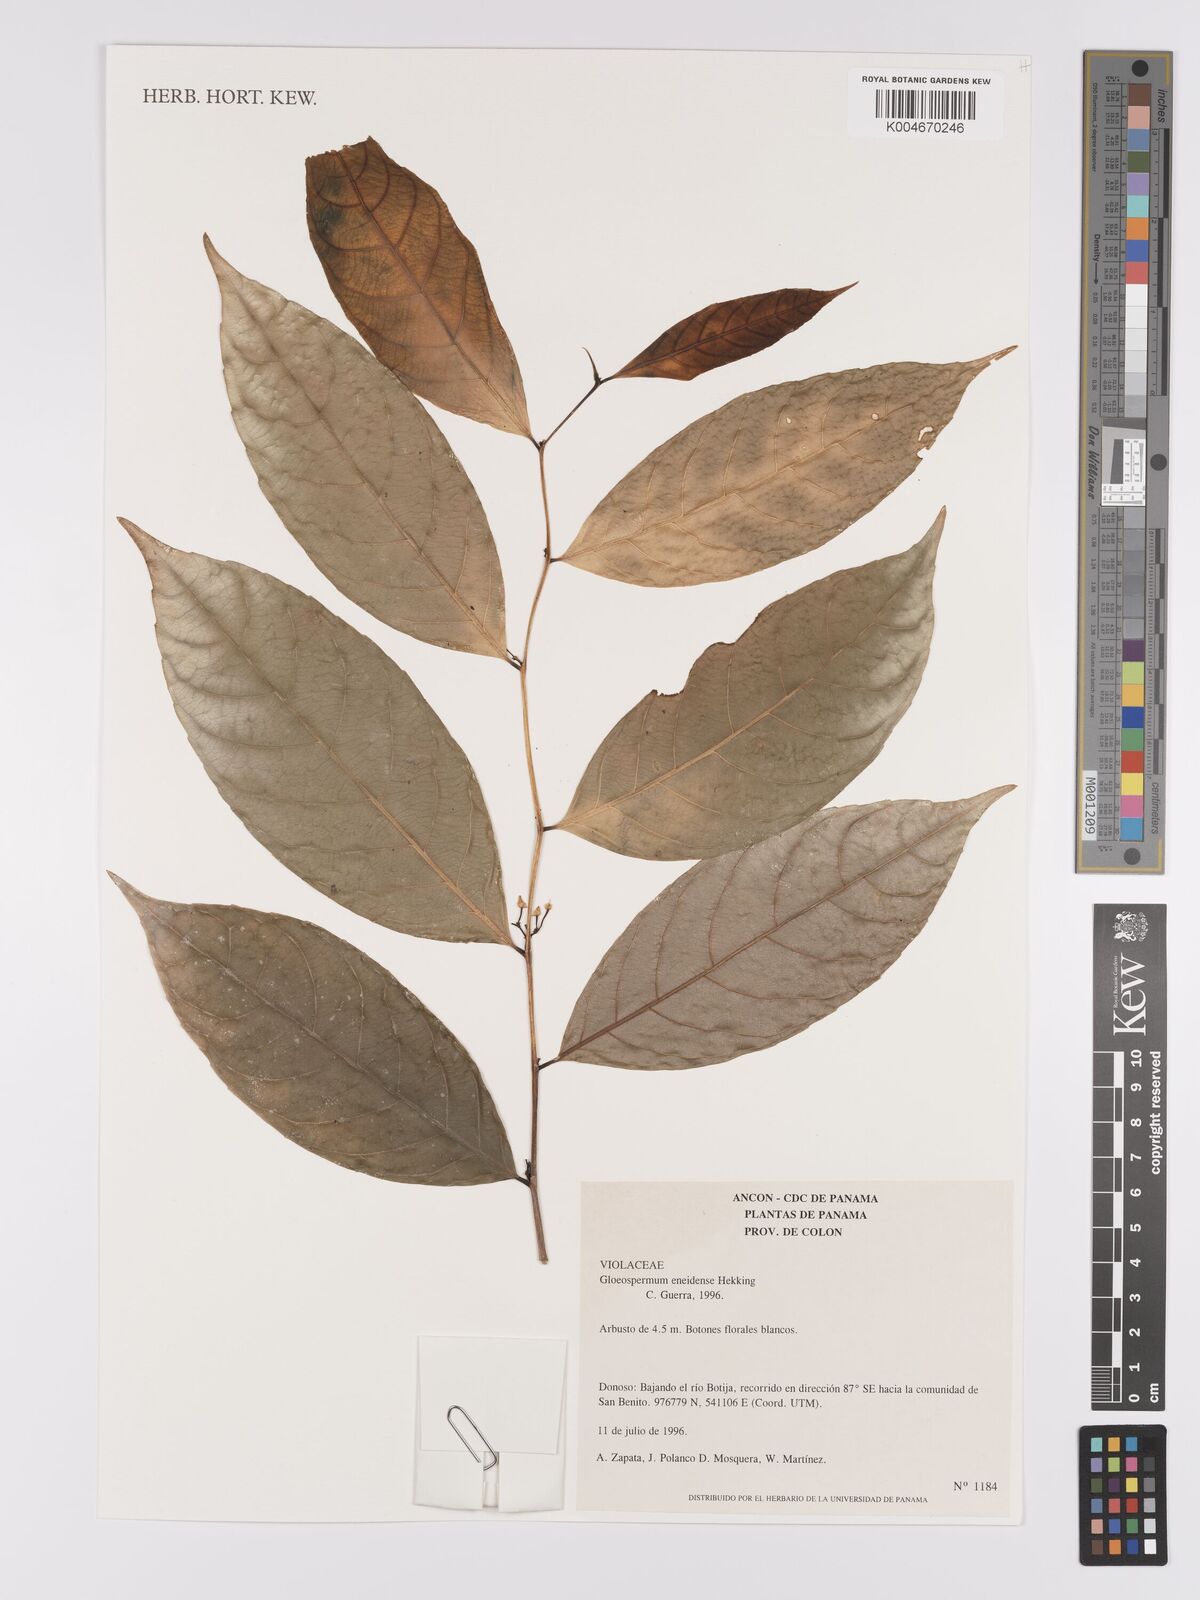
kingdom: Plantae
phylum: Tracheophyta
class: Magnoliopsida
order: Malpighiales
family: Violaceae
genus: Gloeospermum
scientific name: Gloeospermum boreale
